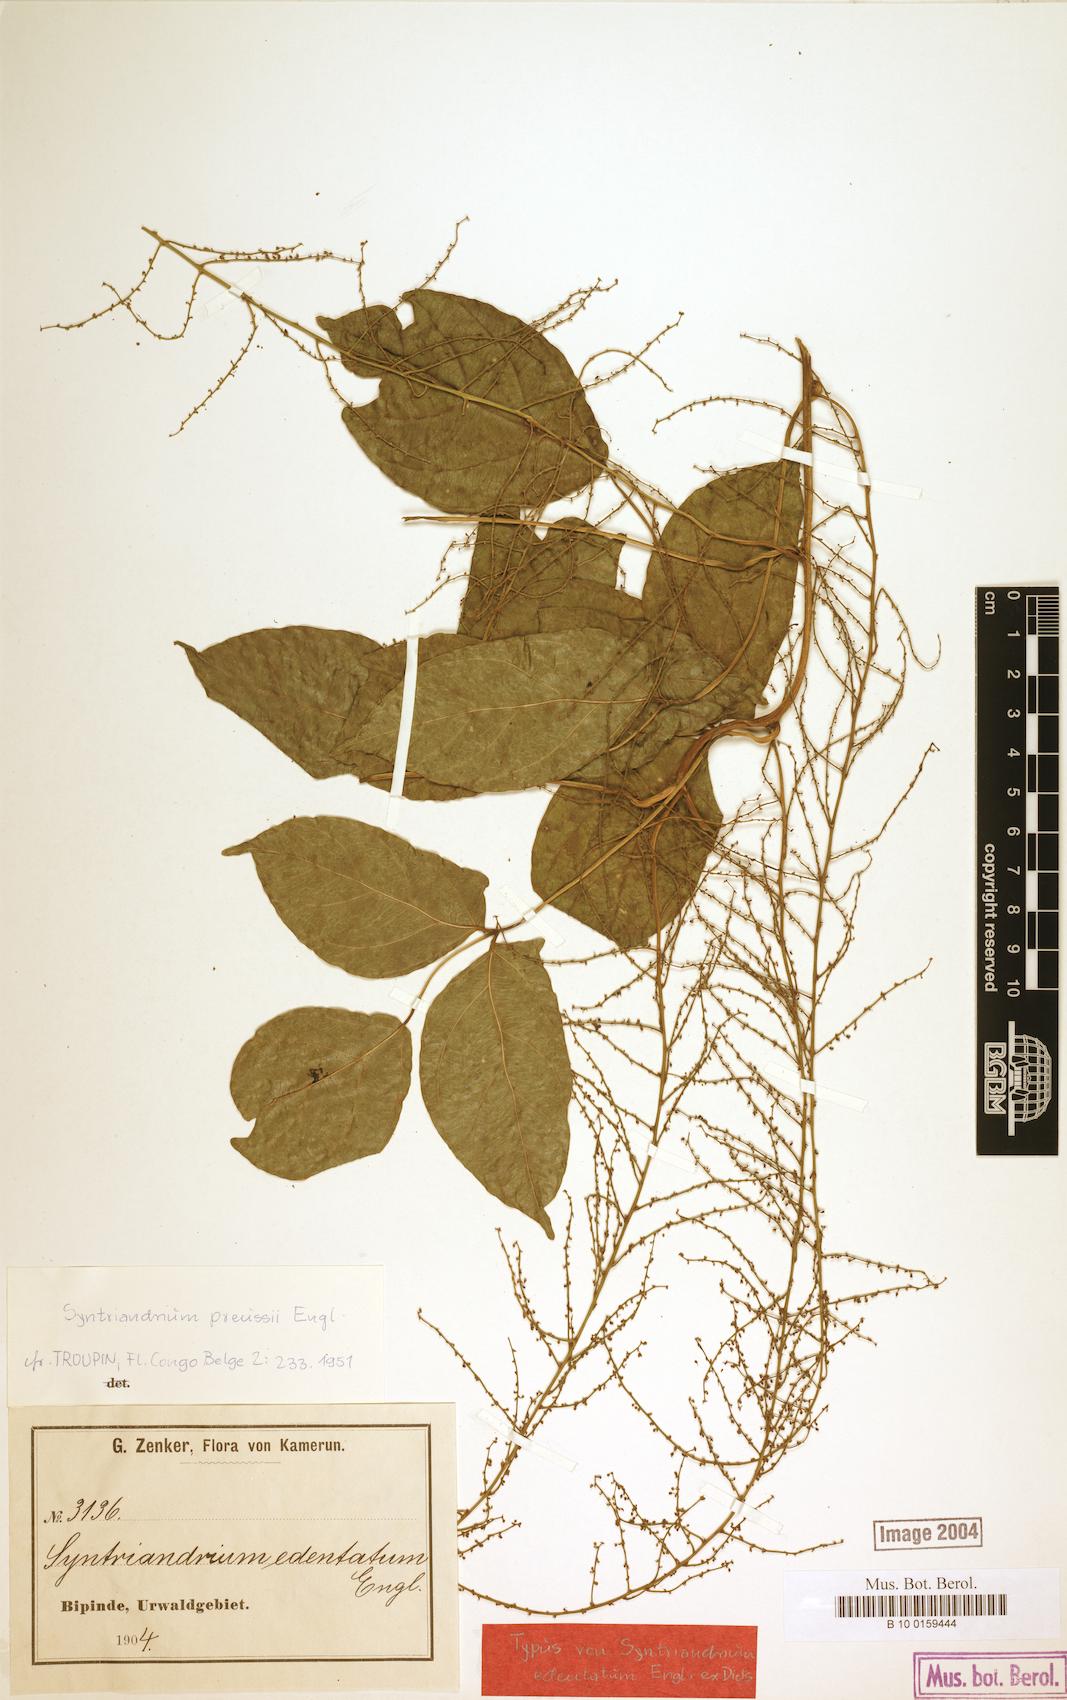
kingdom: Plantae
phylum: Tracheophyta
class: Magnoliopsida
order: Ranunculales
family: Menispermaceae
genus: Syntriandrium
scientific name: Syntriandrium preussii
